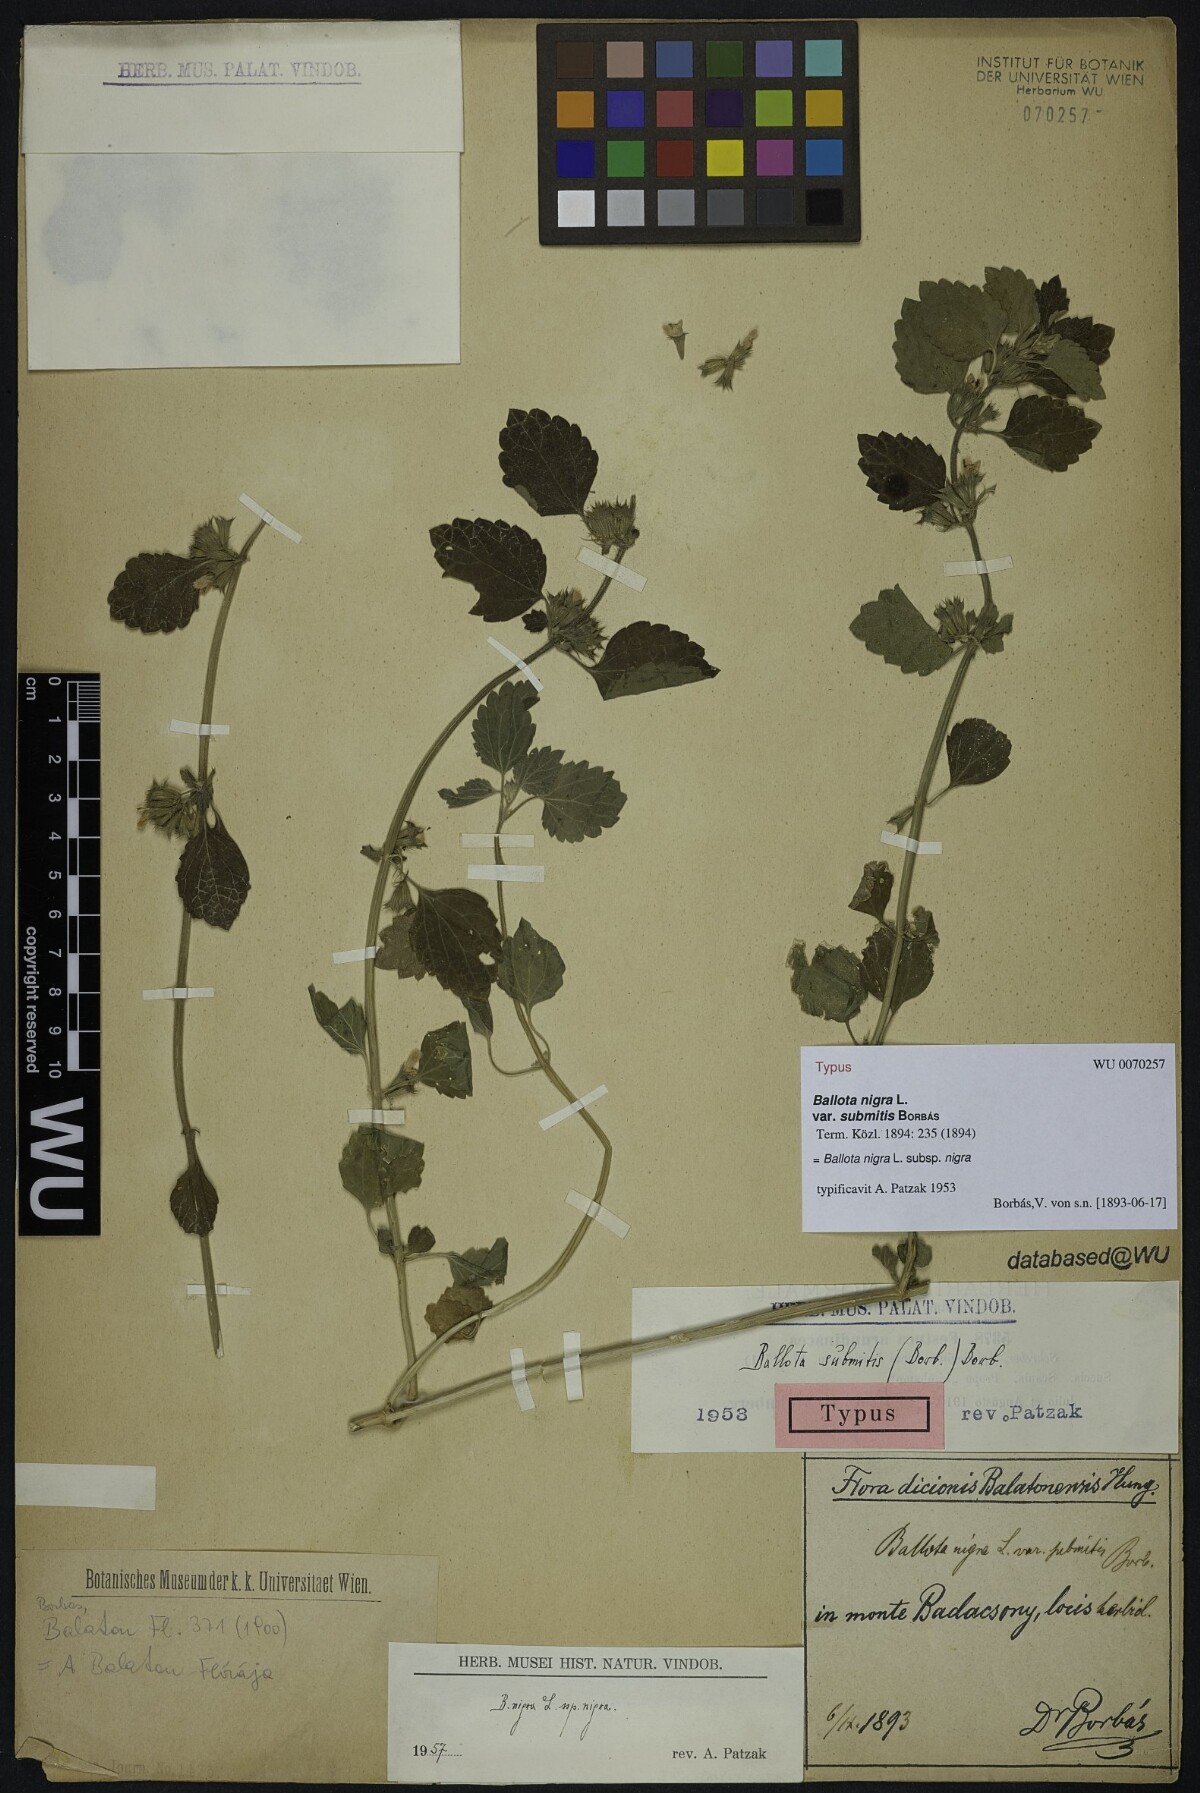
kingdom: Plantae
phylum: Tracheophyta
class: Magnoliopsida
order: Lamiales
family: Lamiaceae
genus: Ballota
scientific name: Ballota nigra
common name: Black horehound
